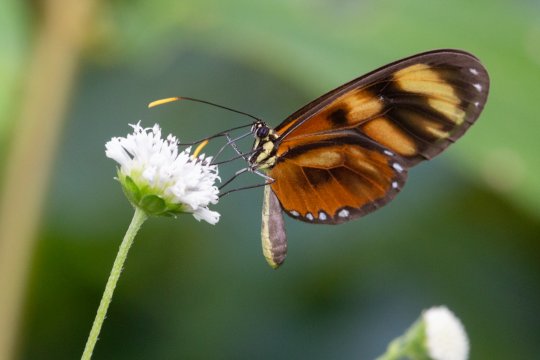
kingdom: Animalia
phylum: Arthropoda
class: Insecta
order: Lepidoptera
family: Nymphalidae
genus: Ceratinia
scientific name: Ceratinia neso
